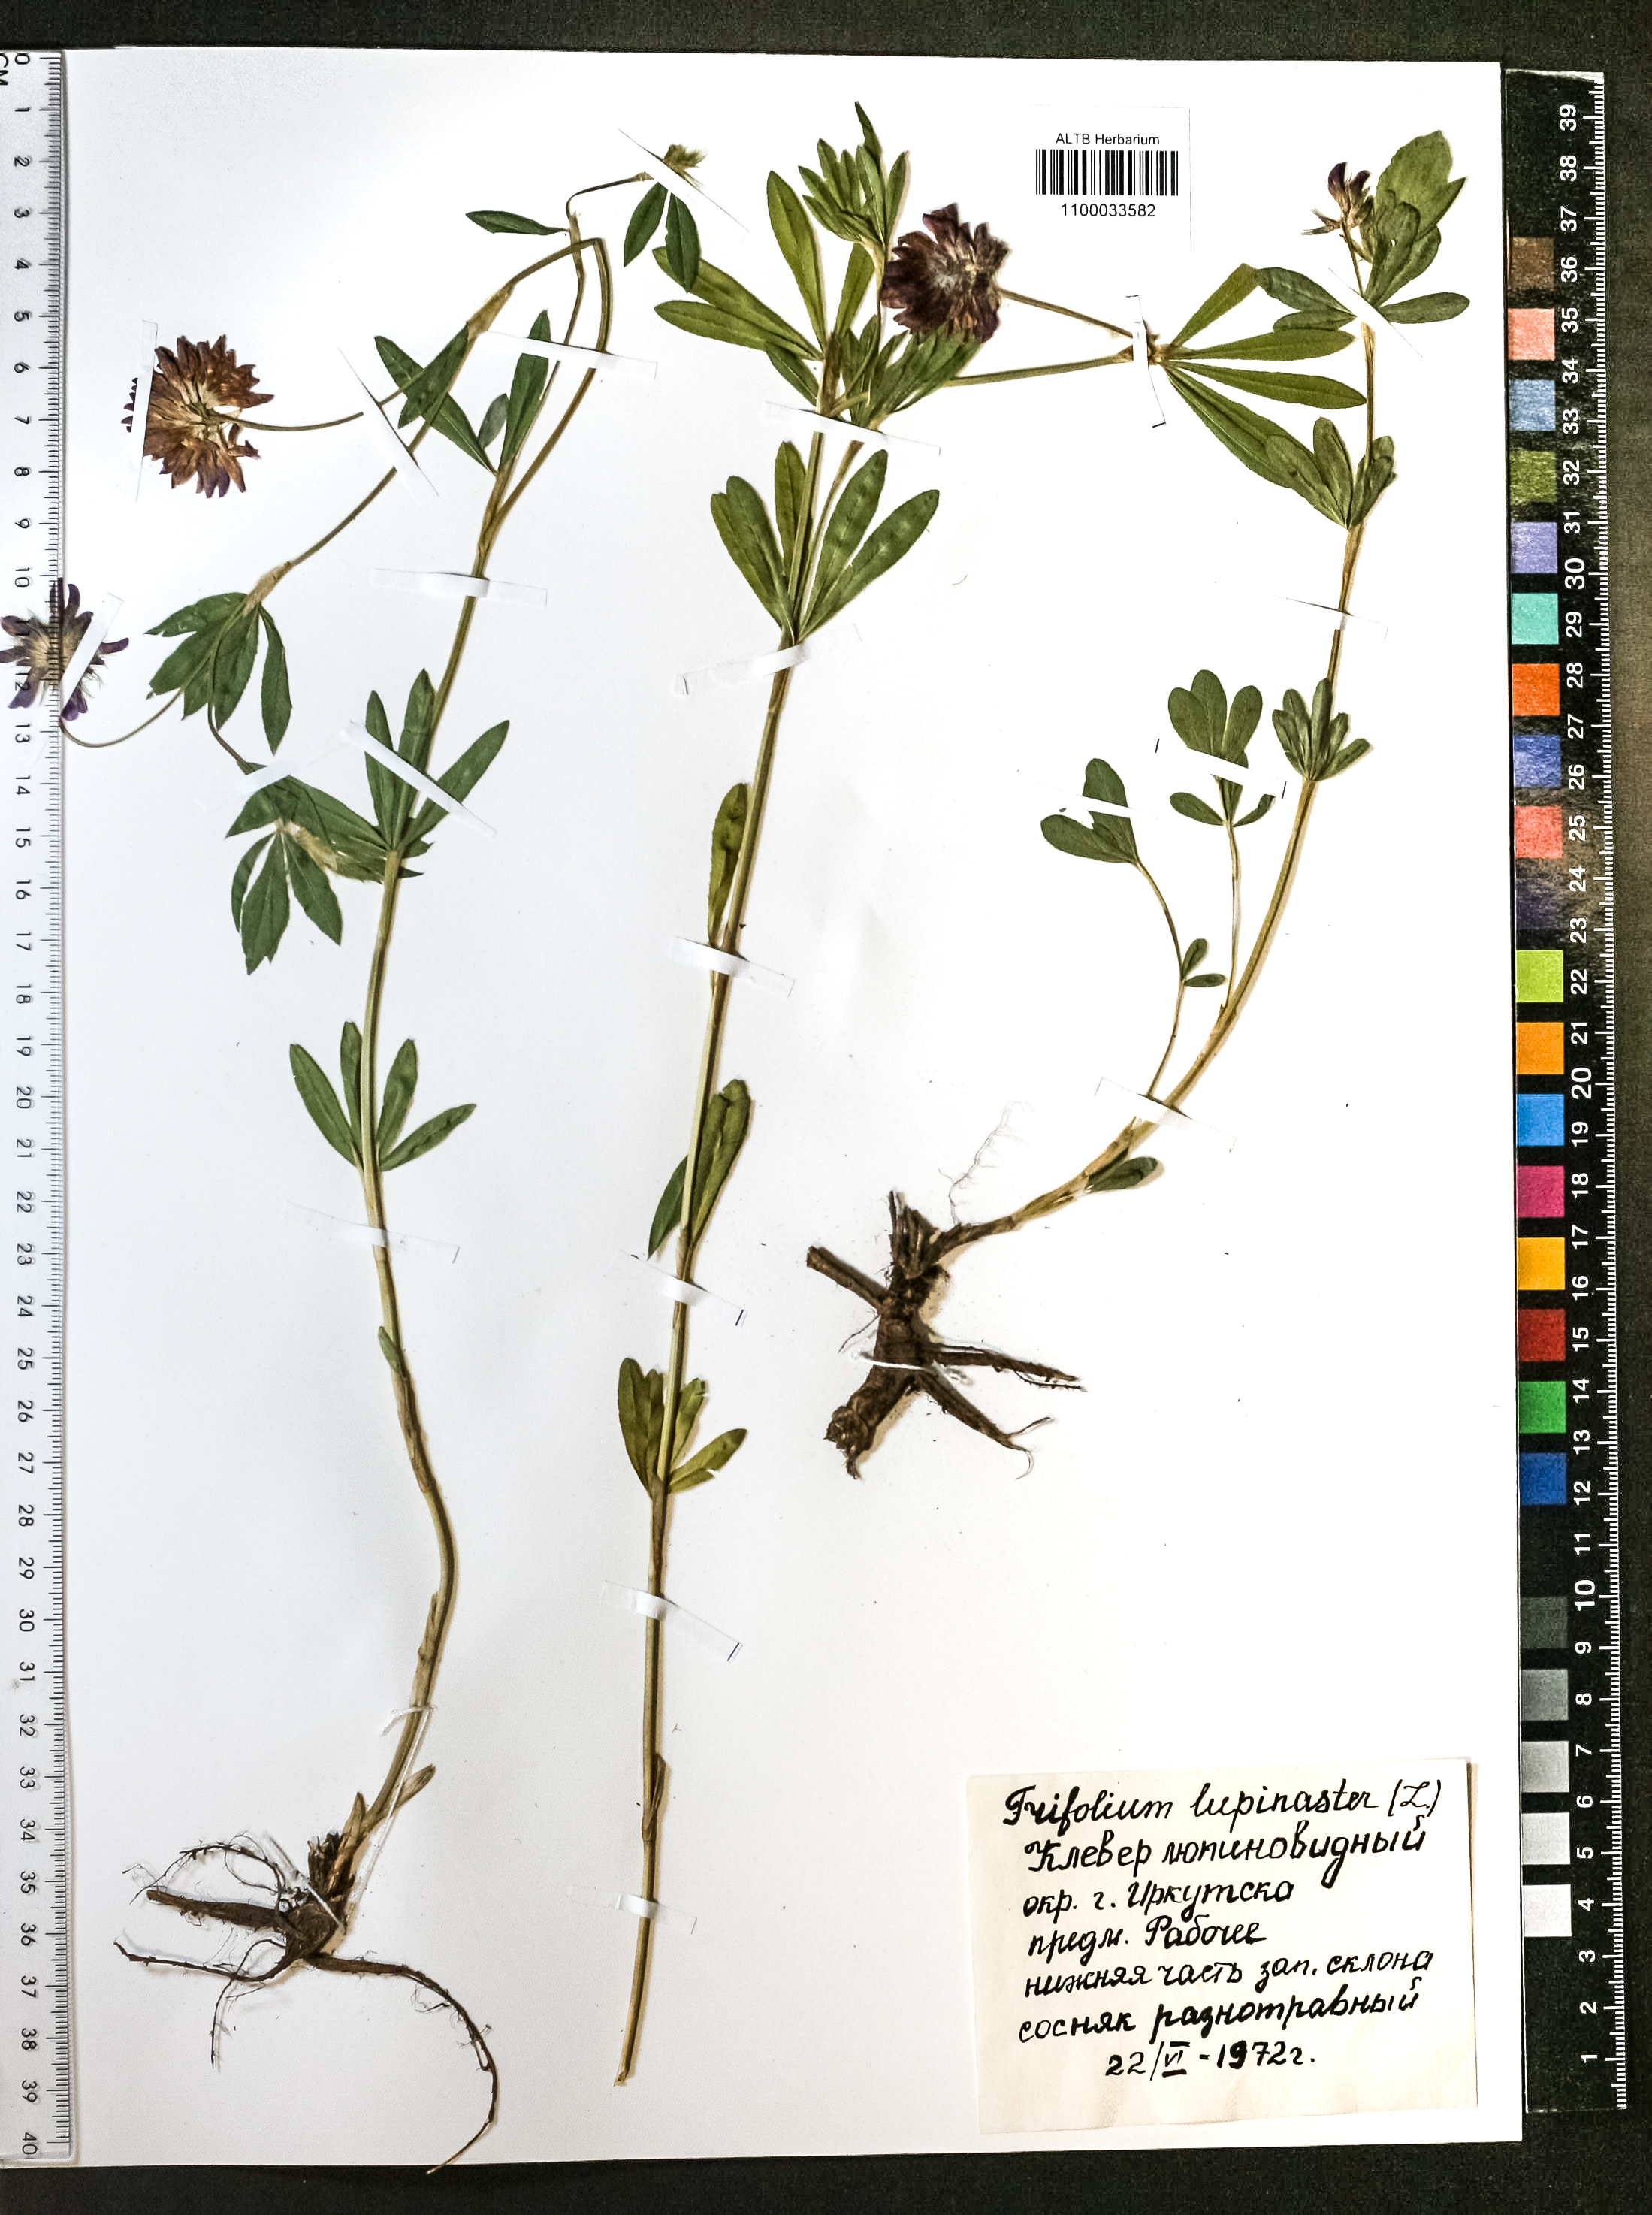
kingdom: Plantae
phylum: Tracheophyta
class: Magnoliopsida
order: Fabales
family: Fabaceae
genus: Trifolium
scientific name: Trifolium lupinaster
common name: Lupine clover
